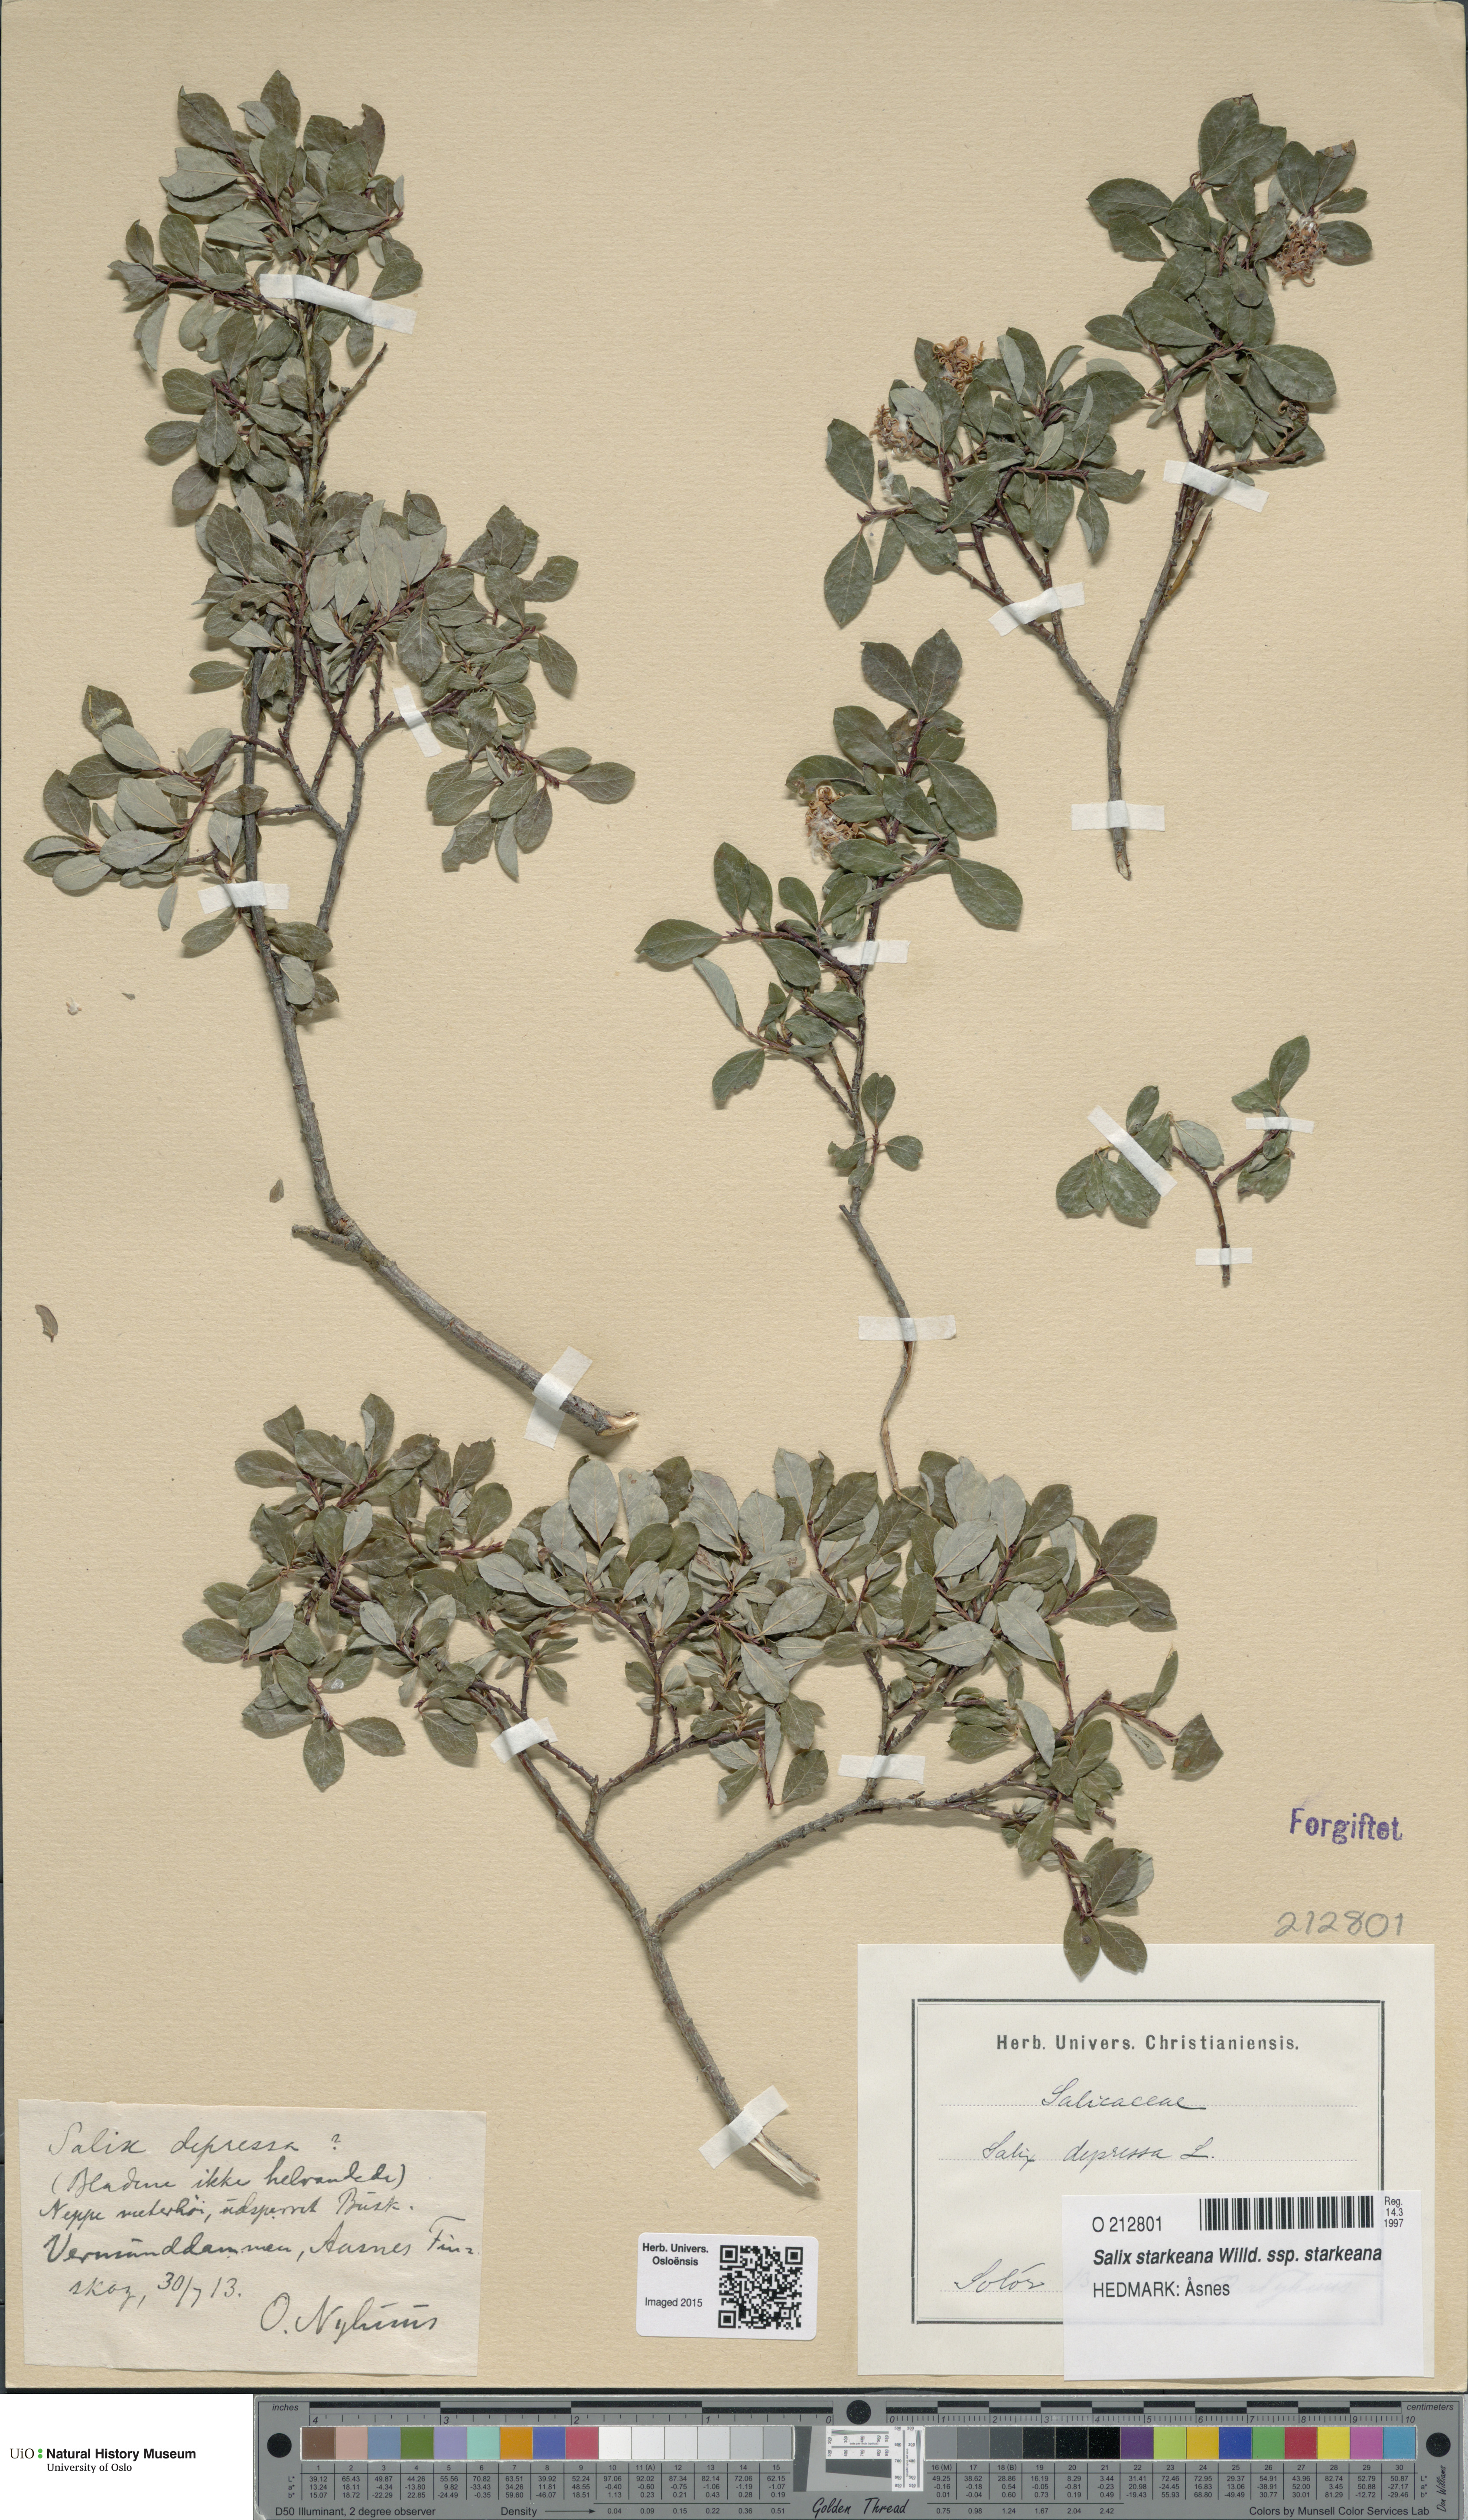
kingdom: Plantae
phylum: Tracheophyta
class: Magnoliopsida
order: Malpighiales
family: Salicaceae
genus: Salix
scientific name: Salix starkeana
